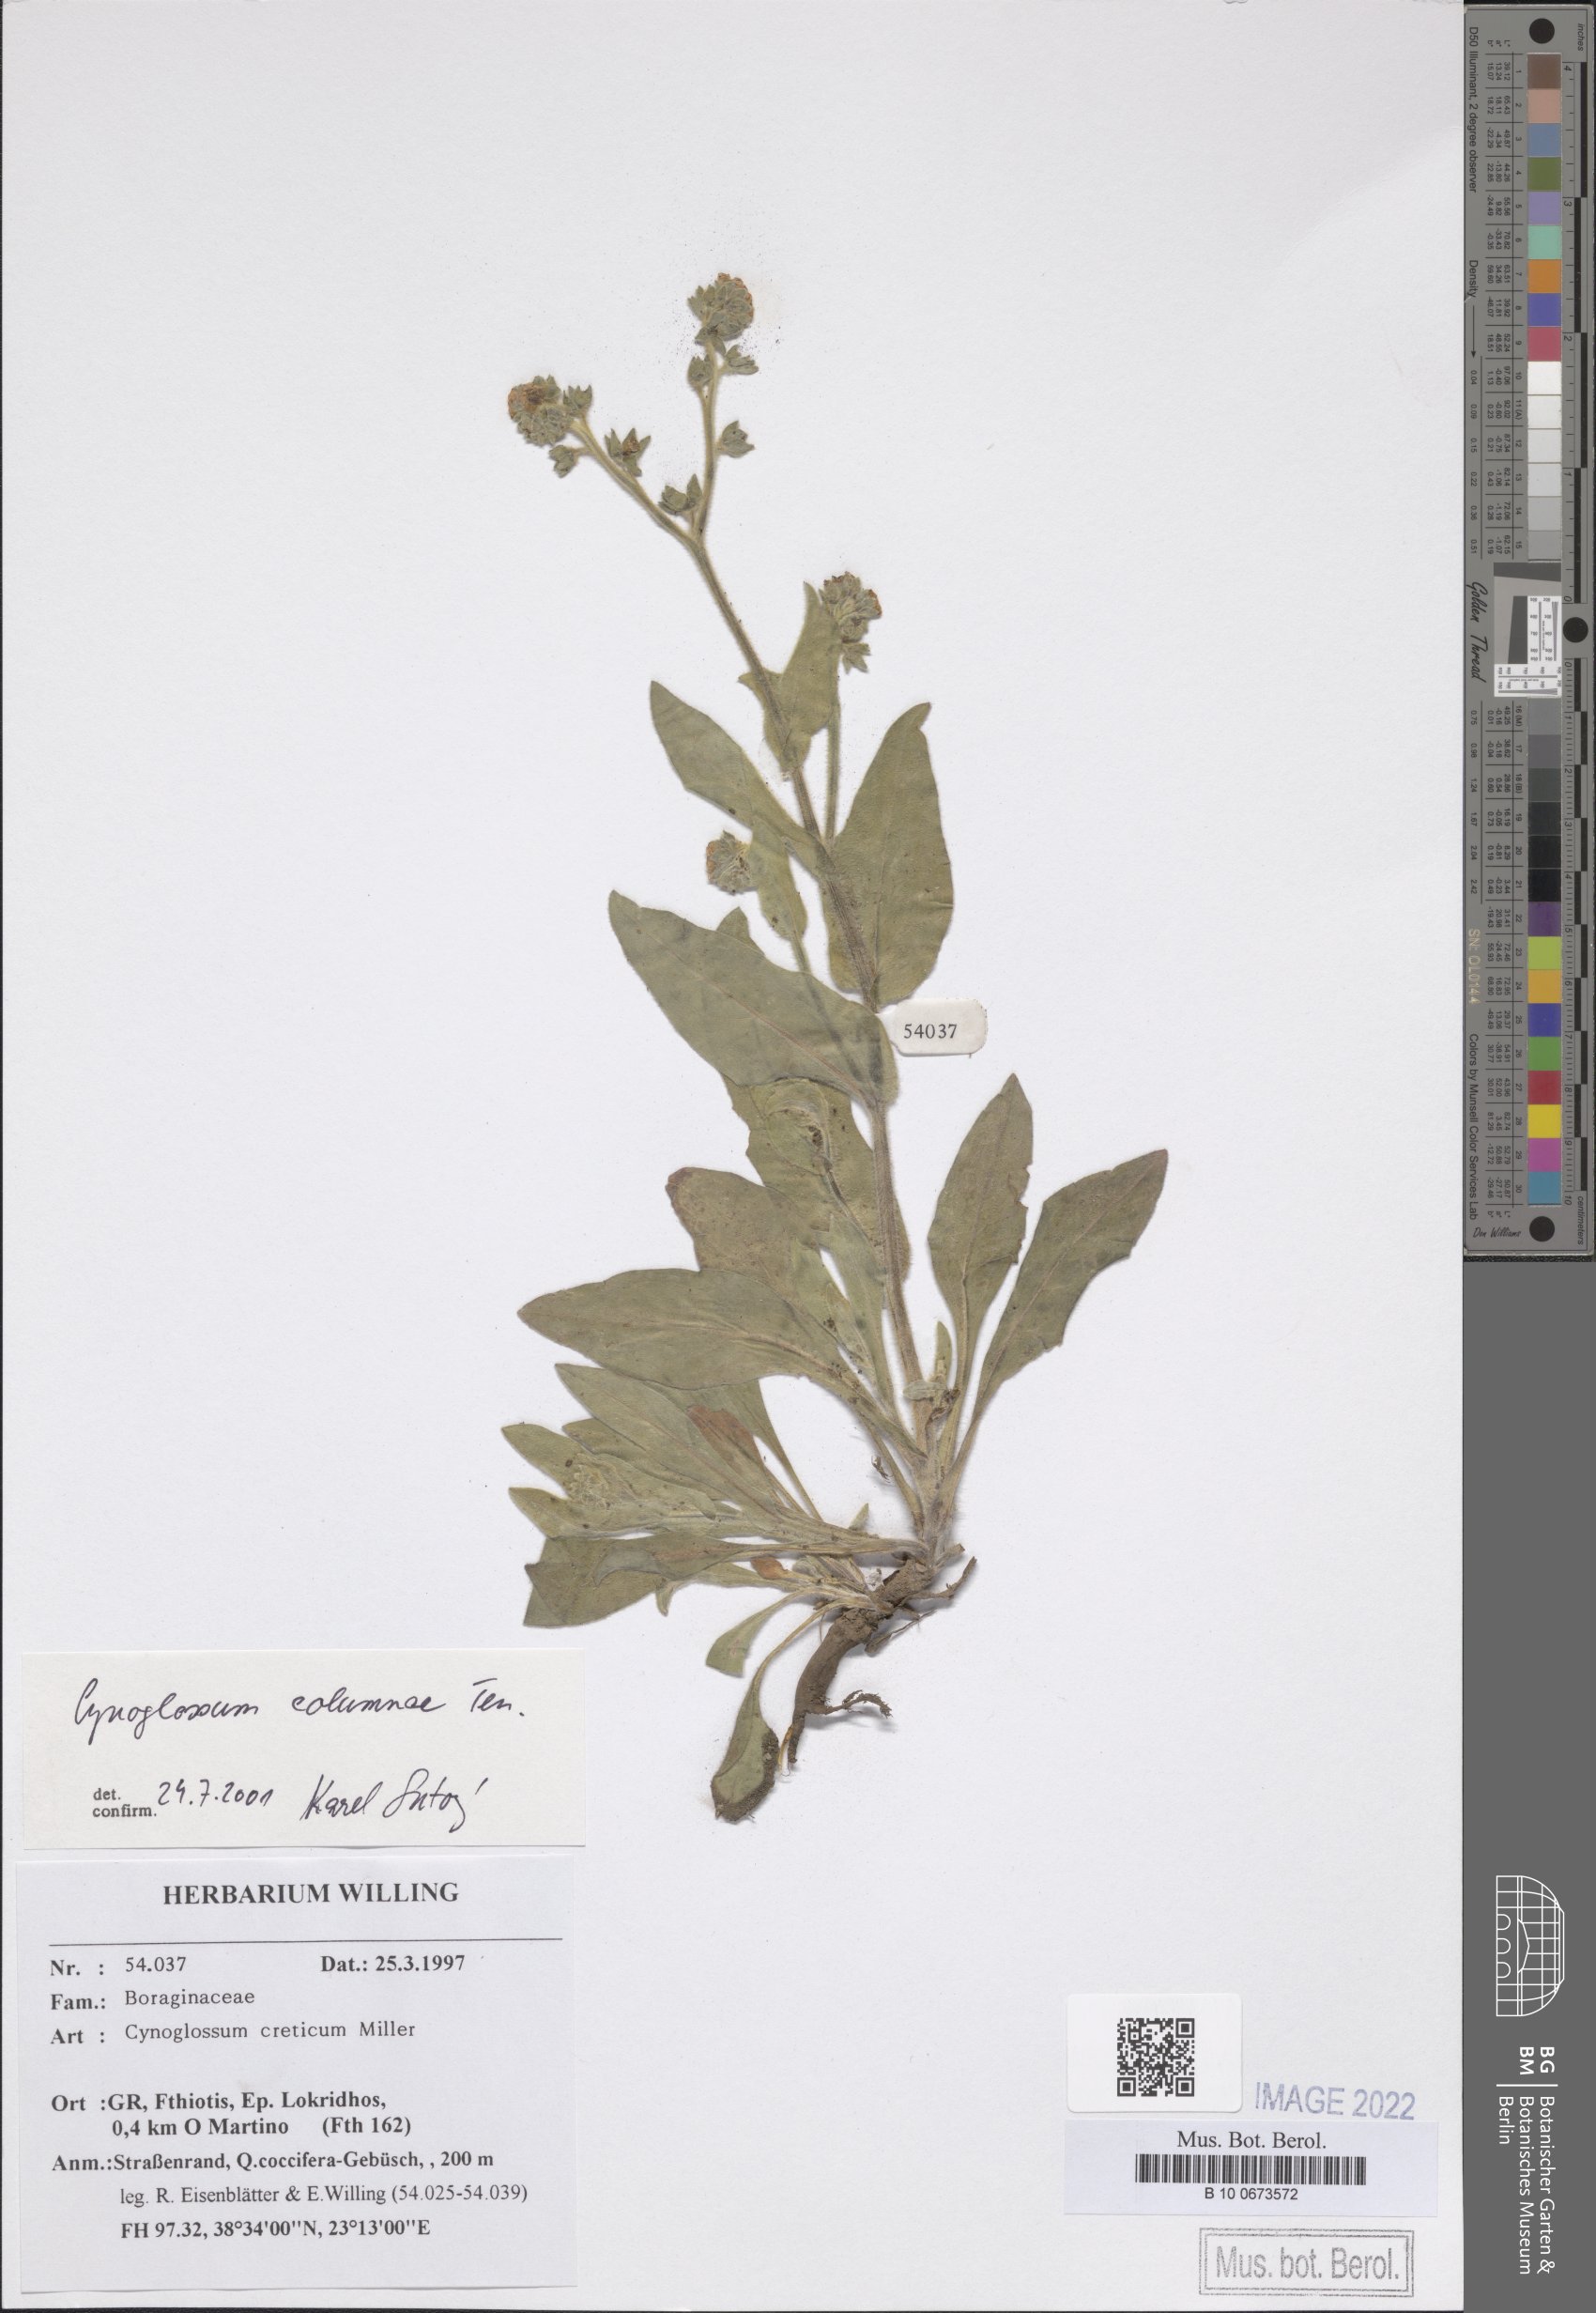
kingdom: Plantae
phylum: Tracheophyta
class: Magnoliopsida
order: Boraginales
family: Boraginaceae
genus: Rindera
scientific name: Rindera columnae
